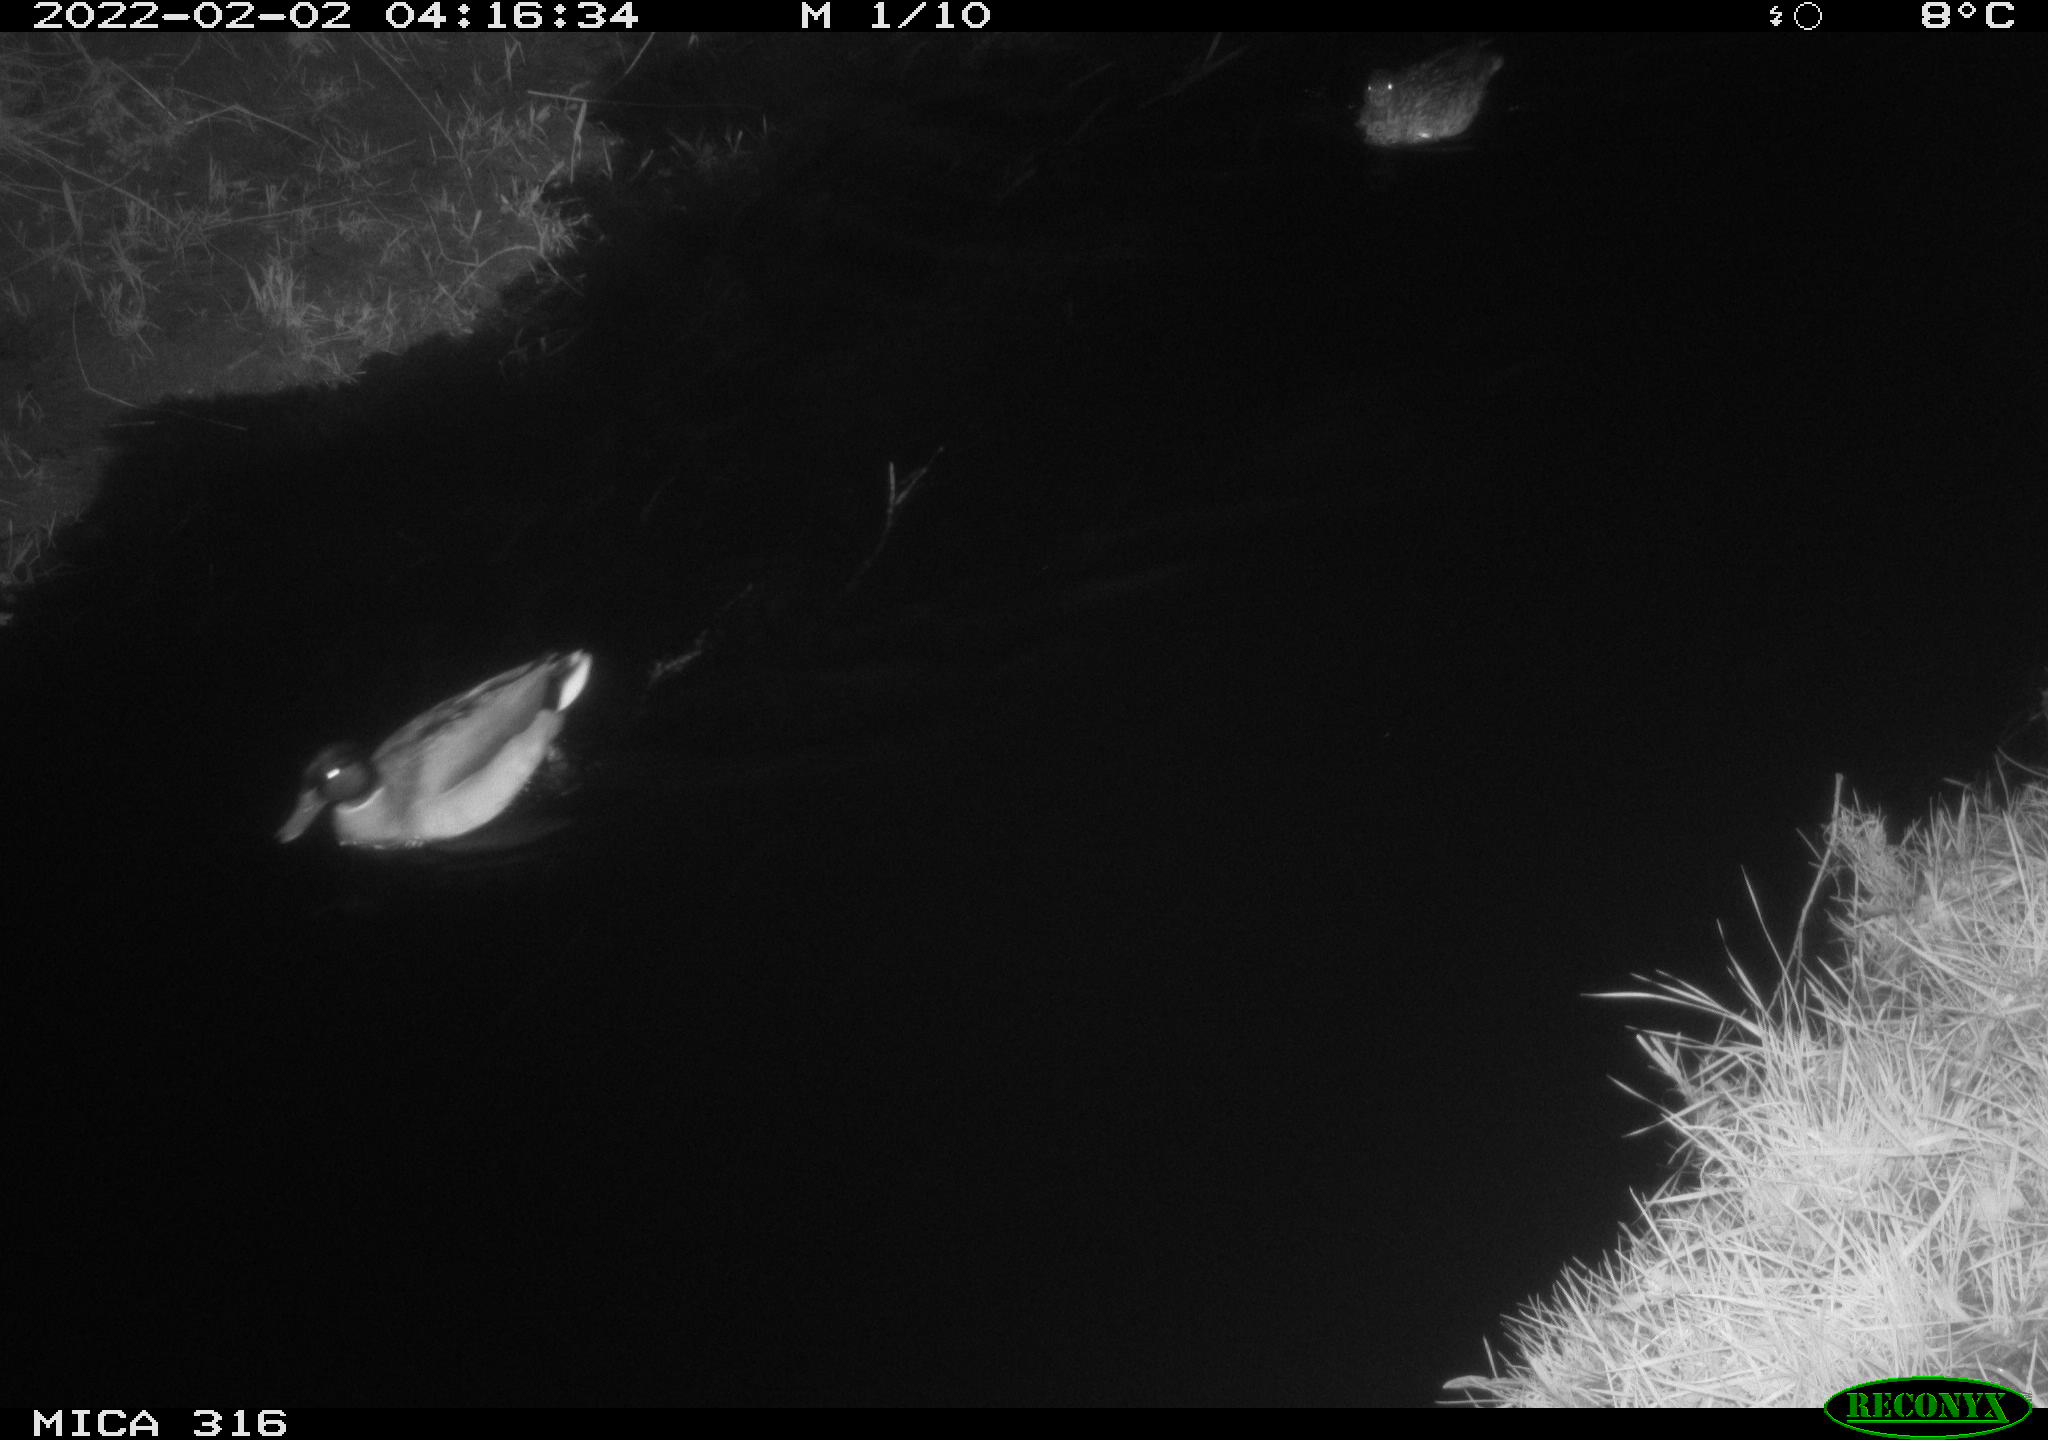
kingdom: Animalia
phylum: Chordata
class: Aves
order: Anseriformes
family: Anatidae
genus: Anas
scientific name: Anas platyrhynchos
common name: Mallard
